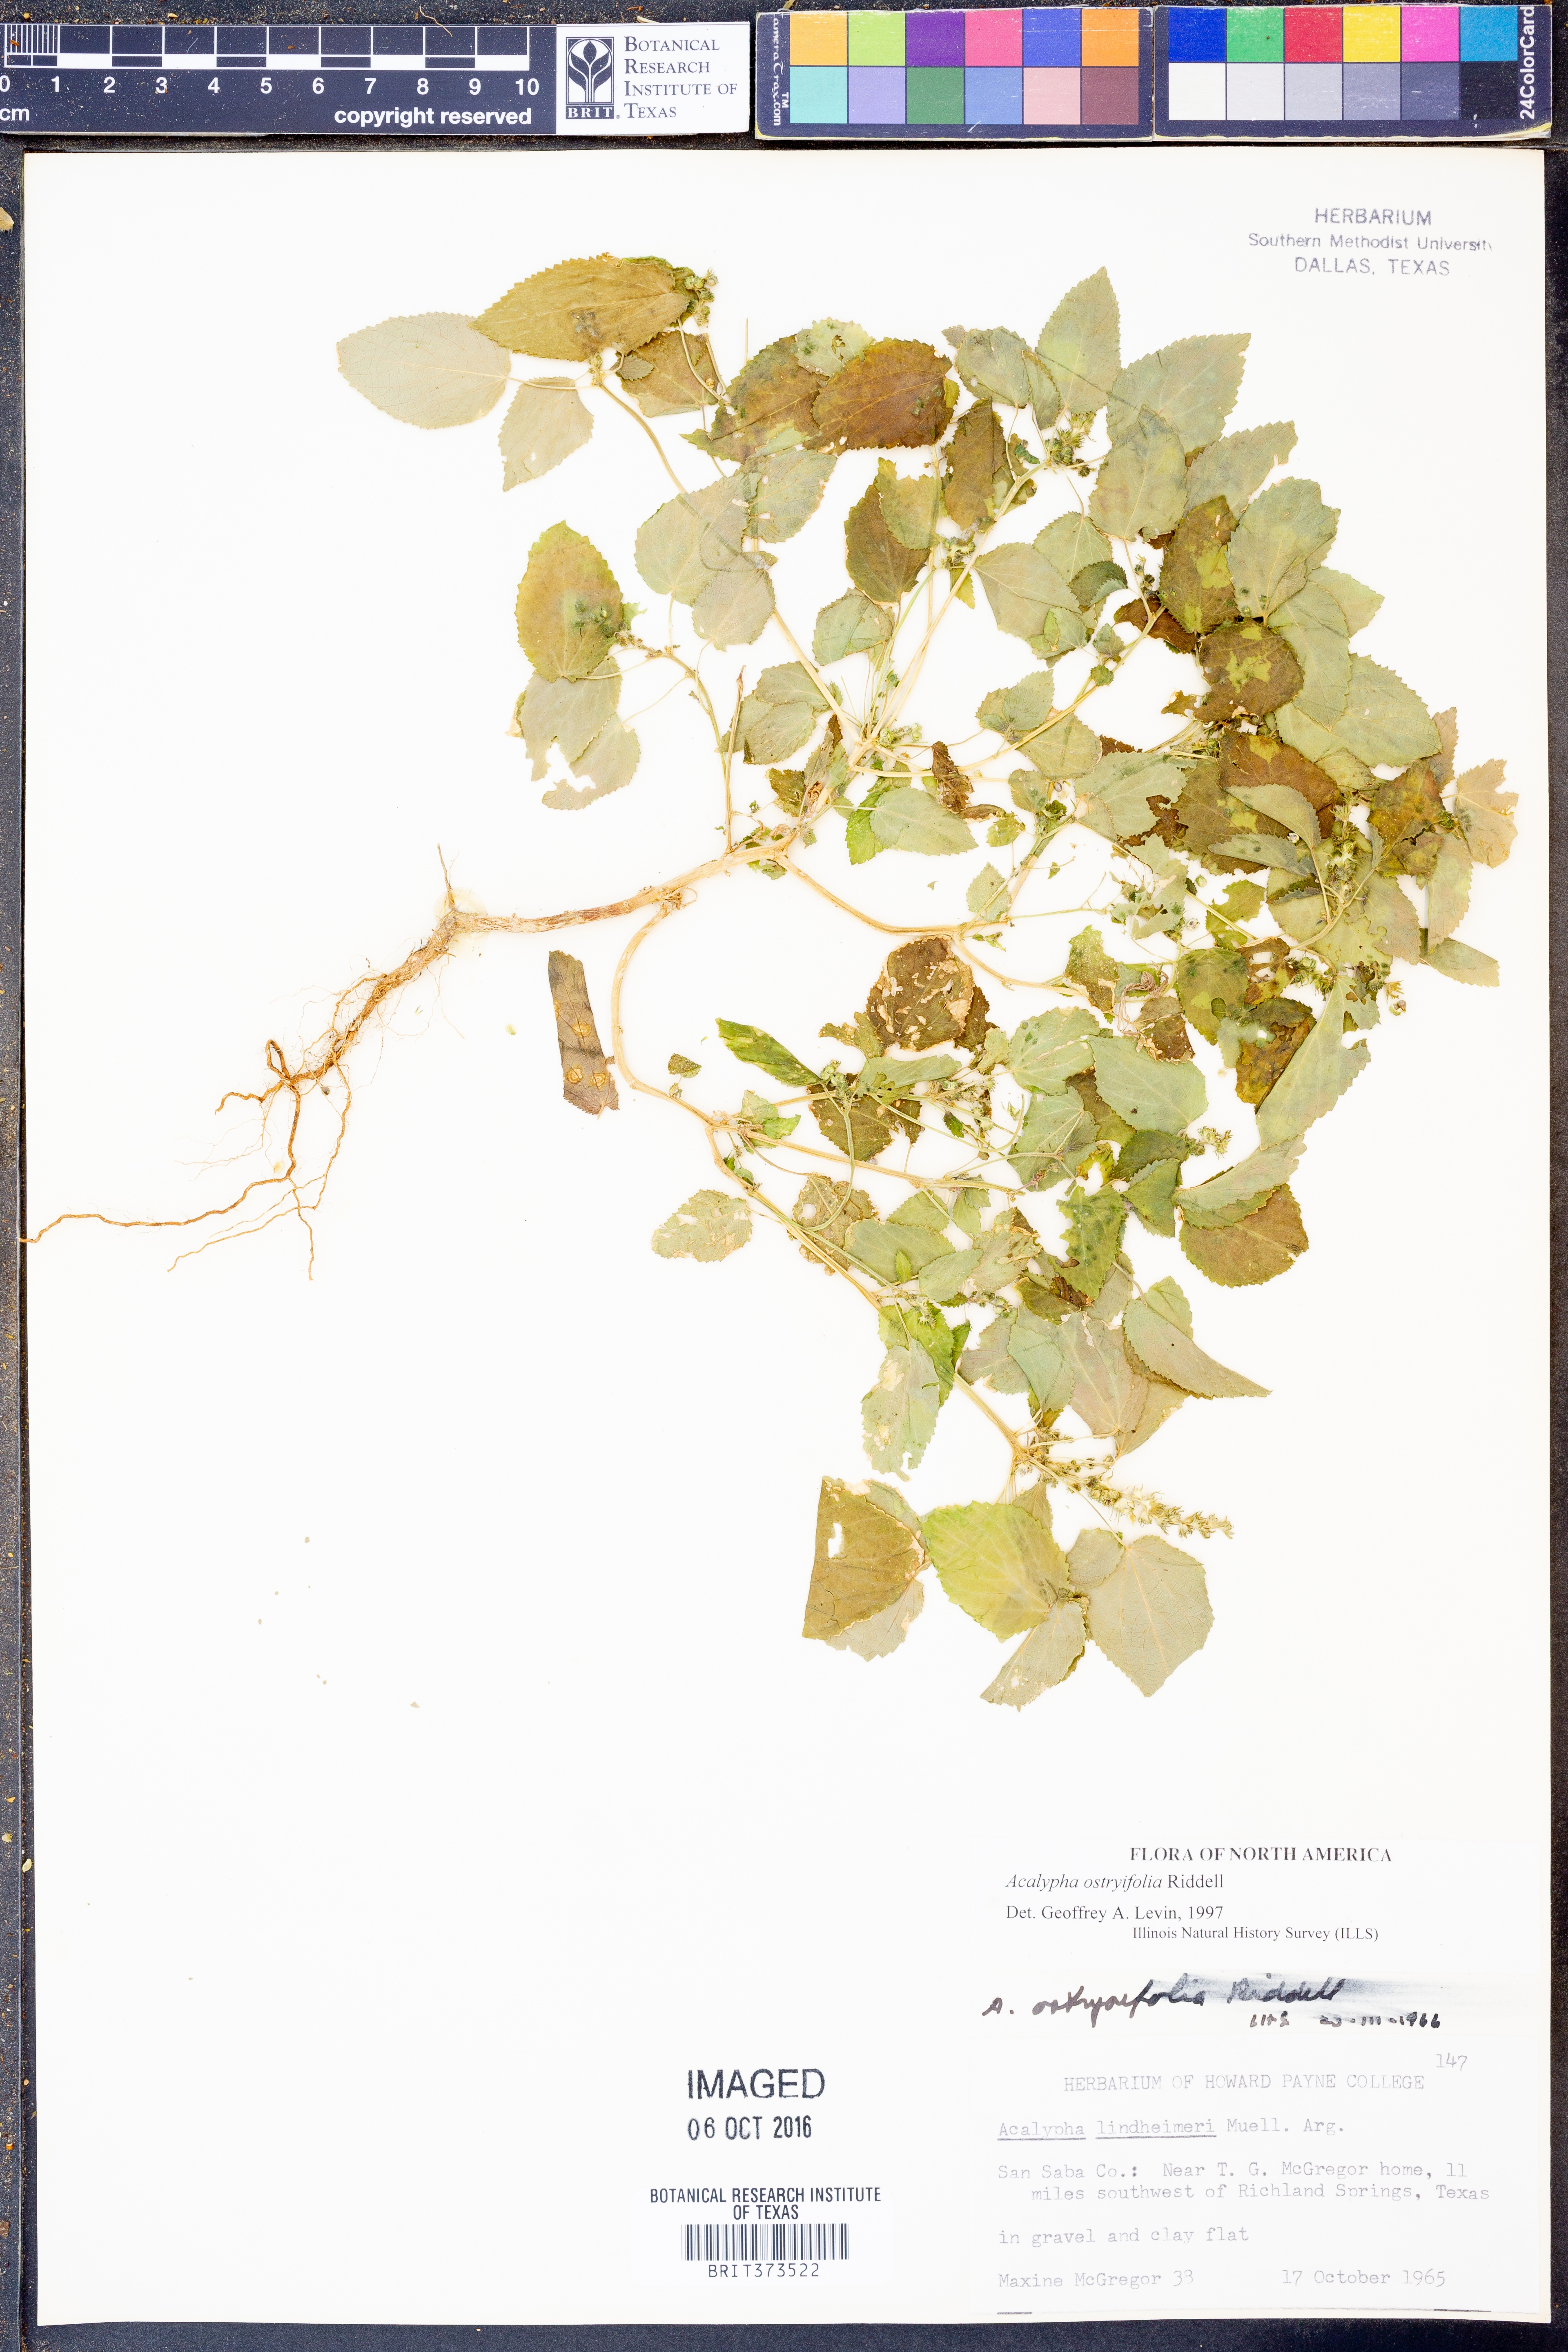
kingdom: Plantae
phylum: Tracheophyta
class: Magnoliopsida
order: Malpighiales
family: Euphorbiaceae
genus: Acalypha
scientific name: Acalypha persimilis
